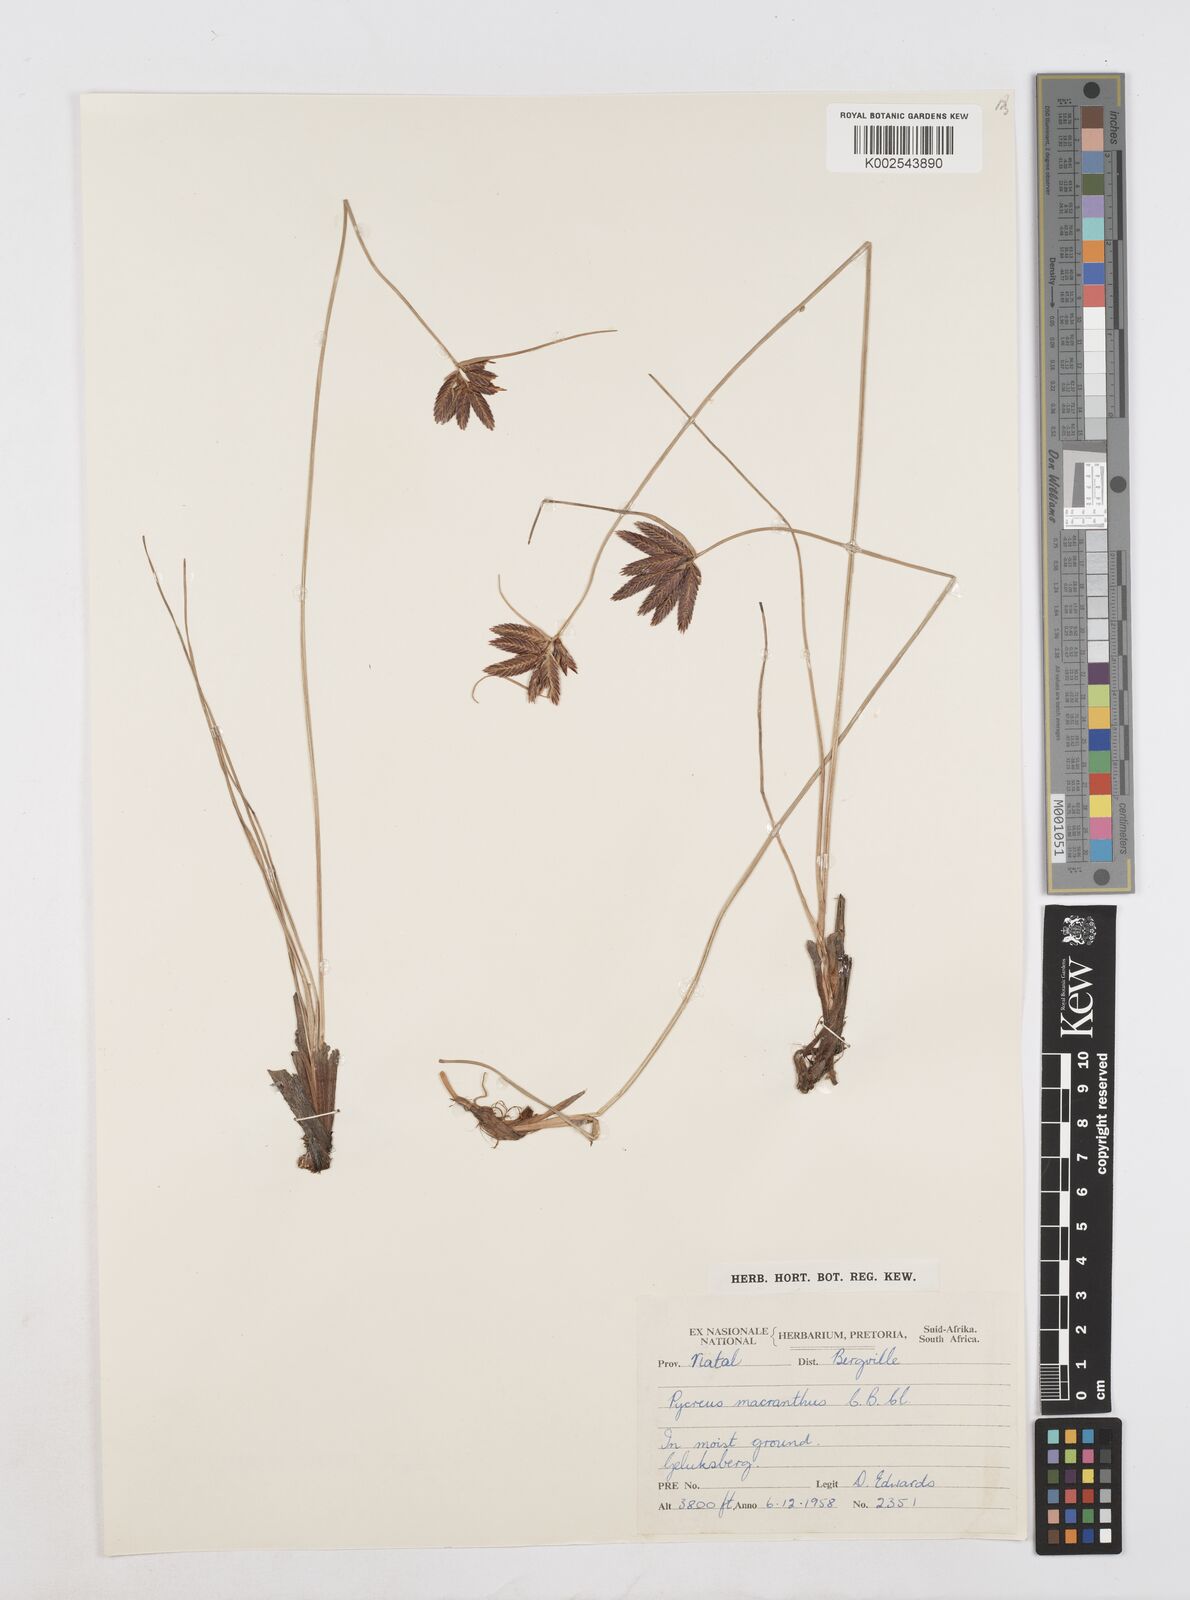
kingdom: Plantae
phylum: Tracheophyta
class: Liliopsida
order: Poales
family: Cyperaceae
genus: Cyperus
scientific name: Cyperus nigricans
